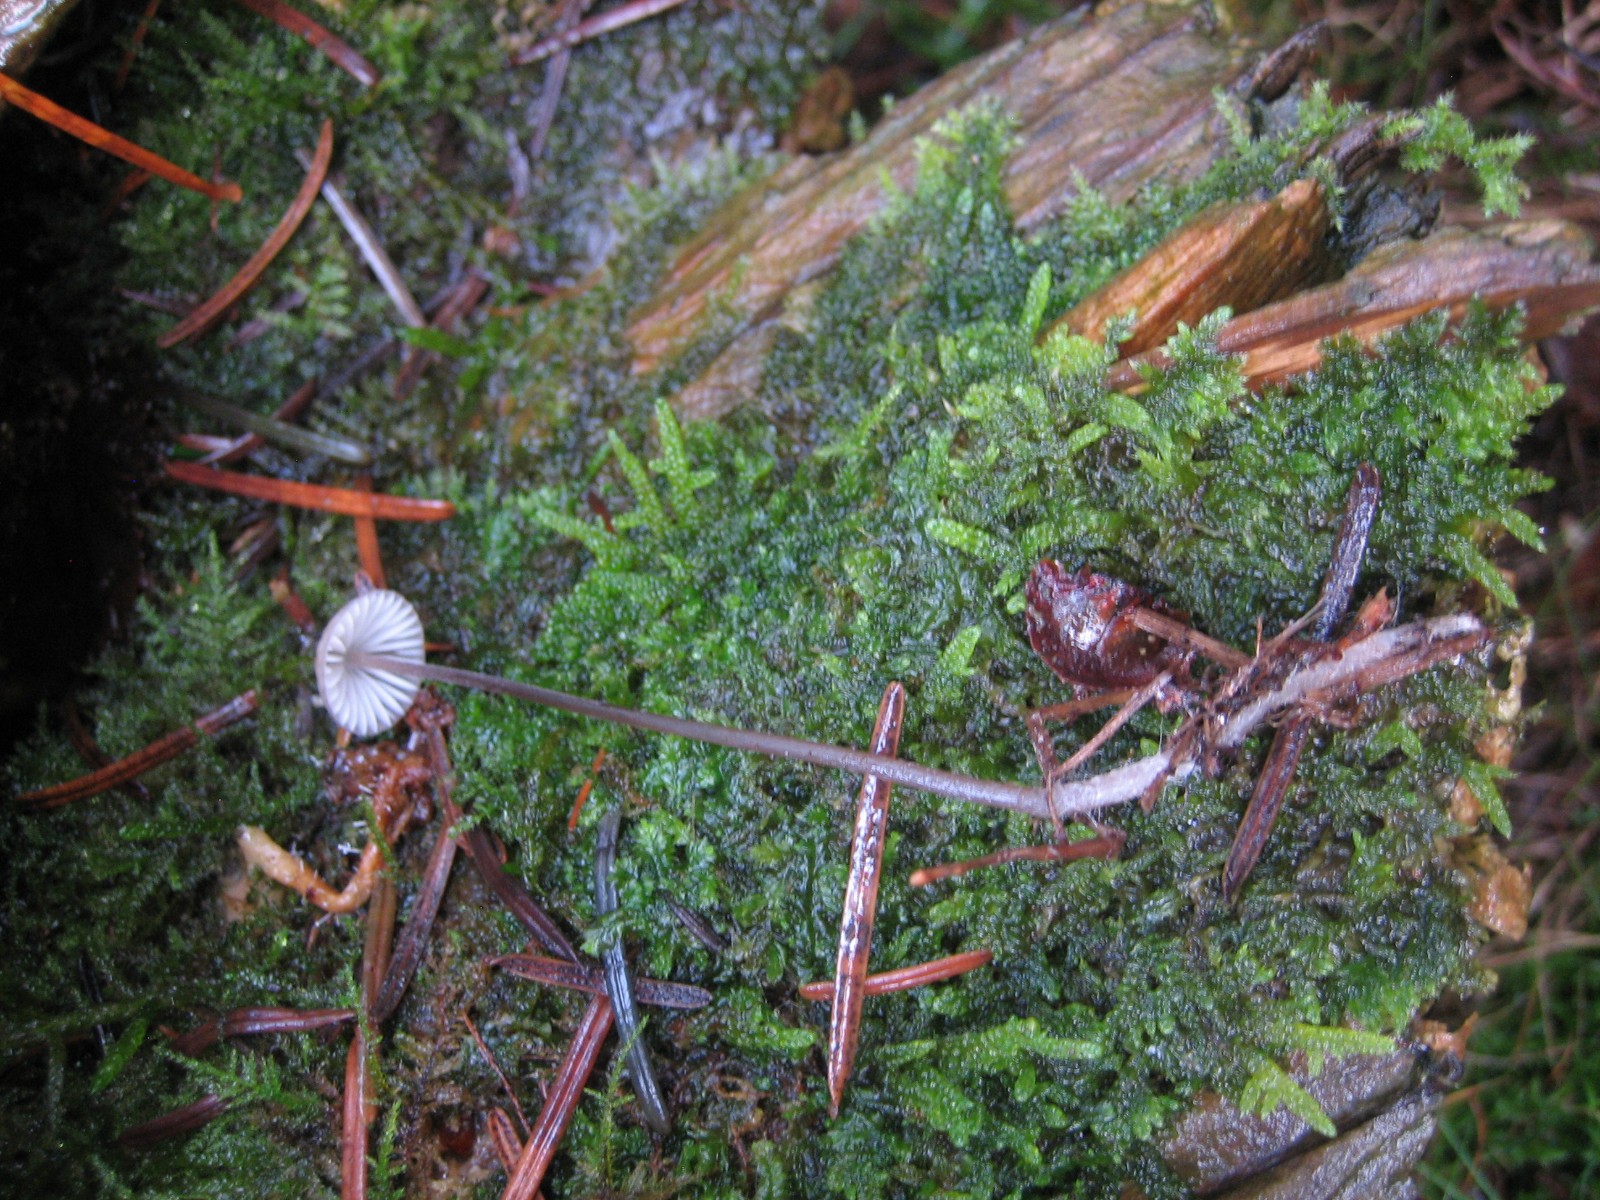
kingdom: Fungi
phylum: Basidiomycota
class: Agaricomycetes
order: Agaricales
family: Mycenaceae
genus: Mycena
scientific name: Mycena
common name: huesvamp
